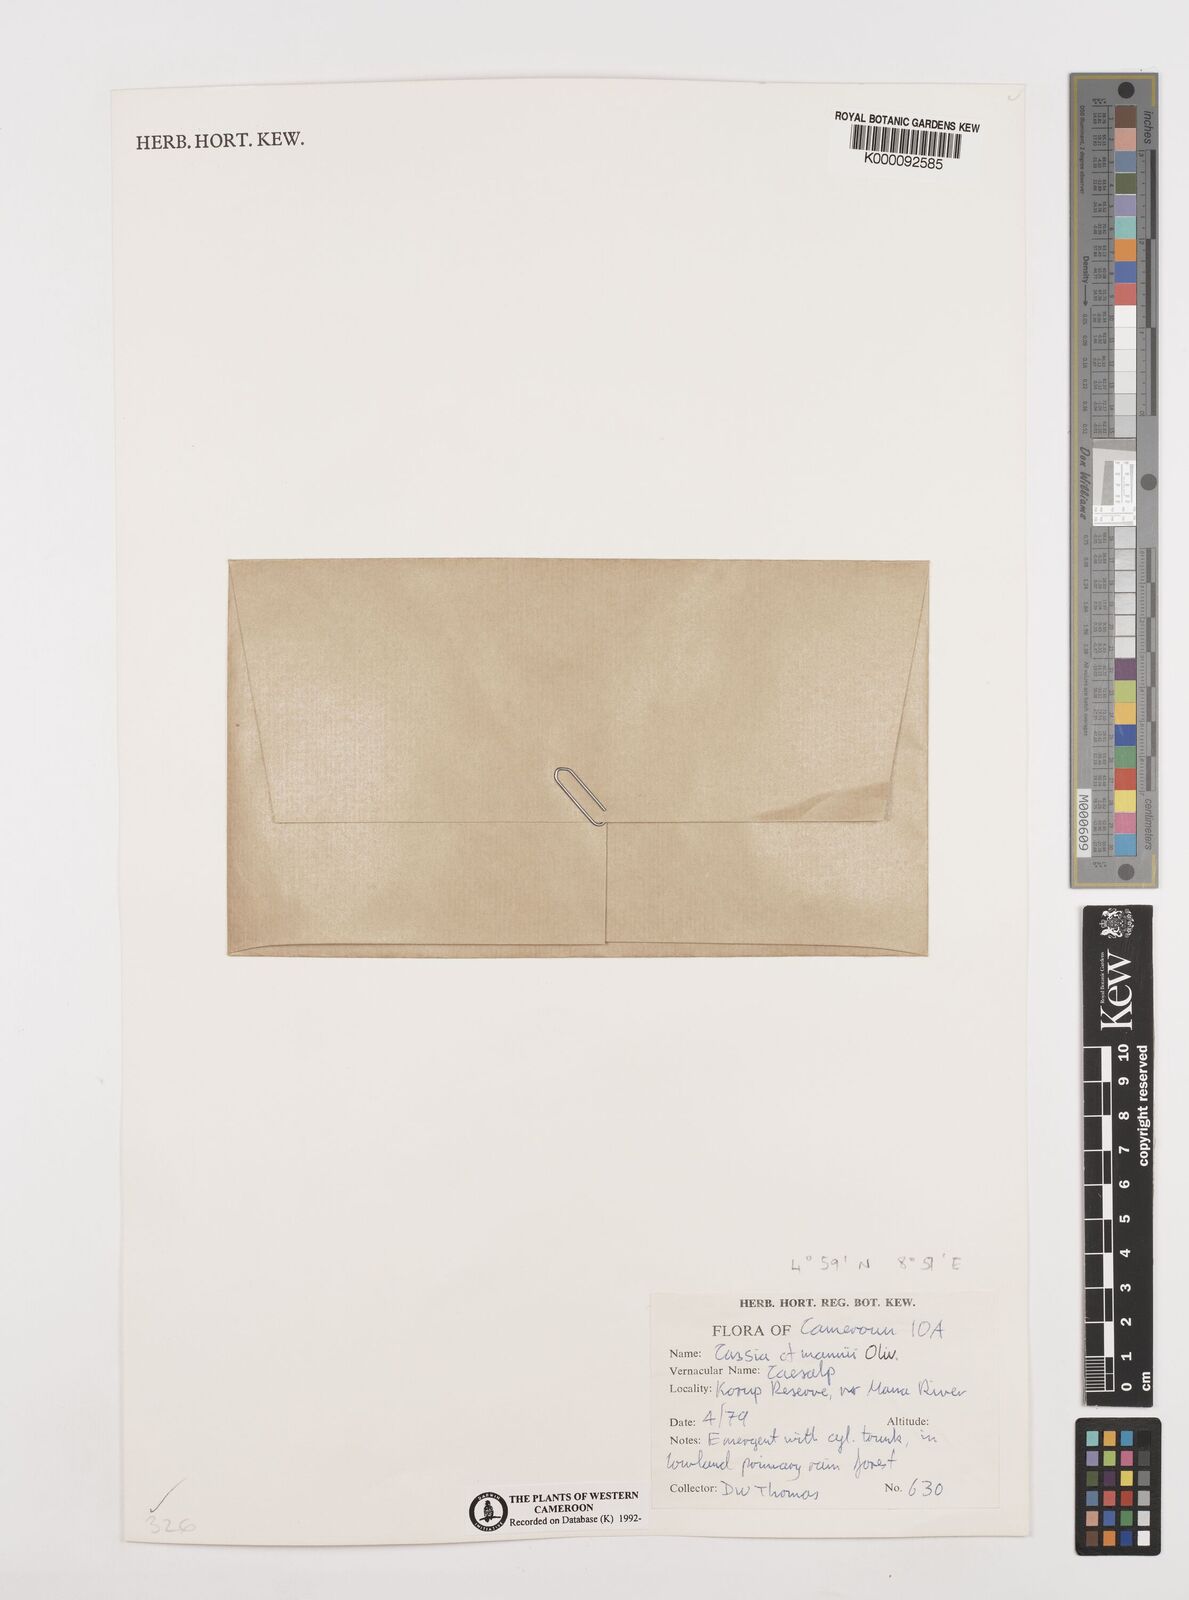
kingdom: Plantae
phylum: Tracheophyta
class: Magnoliopsida
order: Fabales
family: Fabaceae
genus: Cassia
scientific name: Cassia mannii
